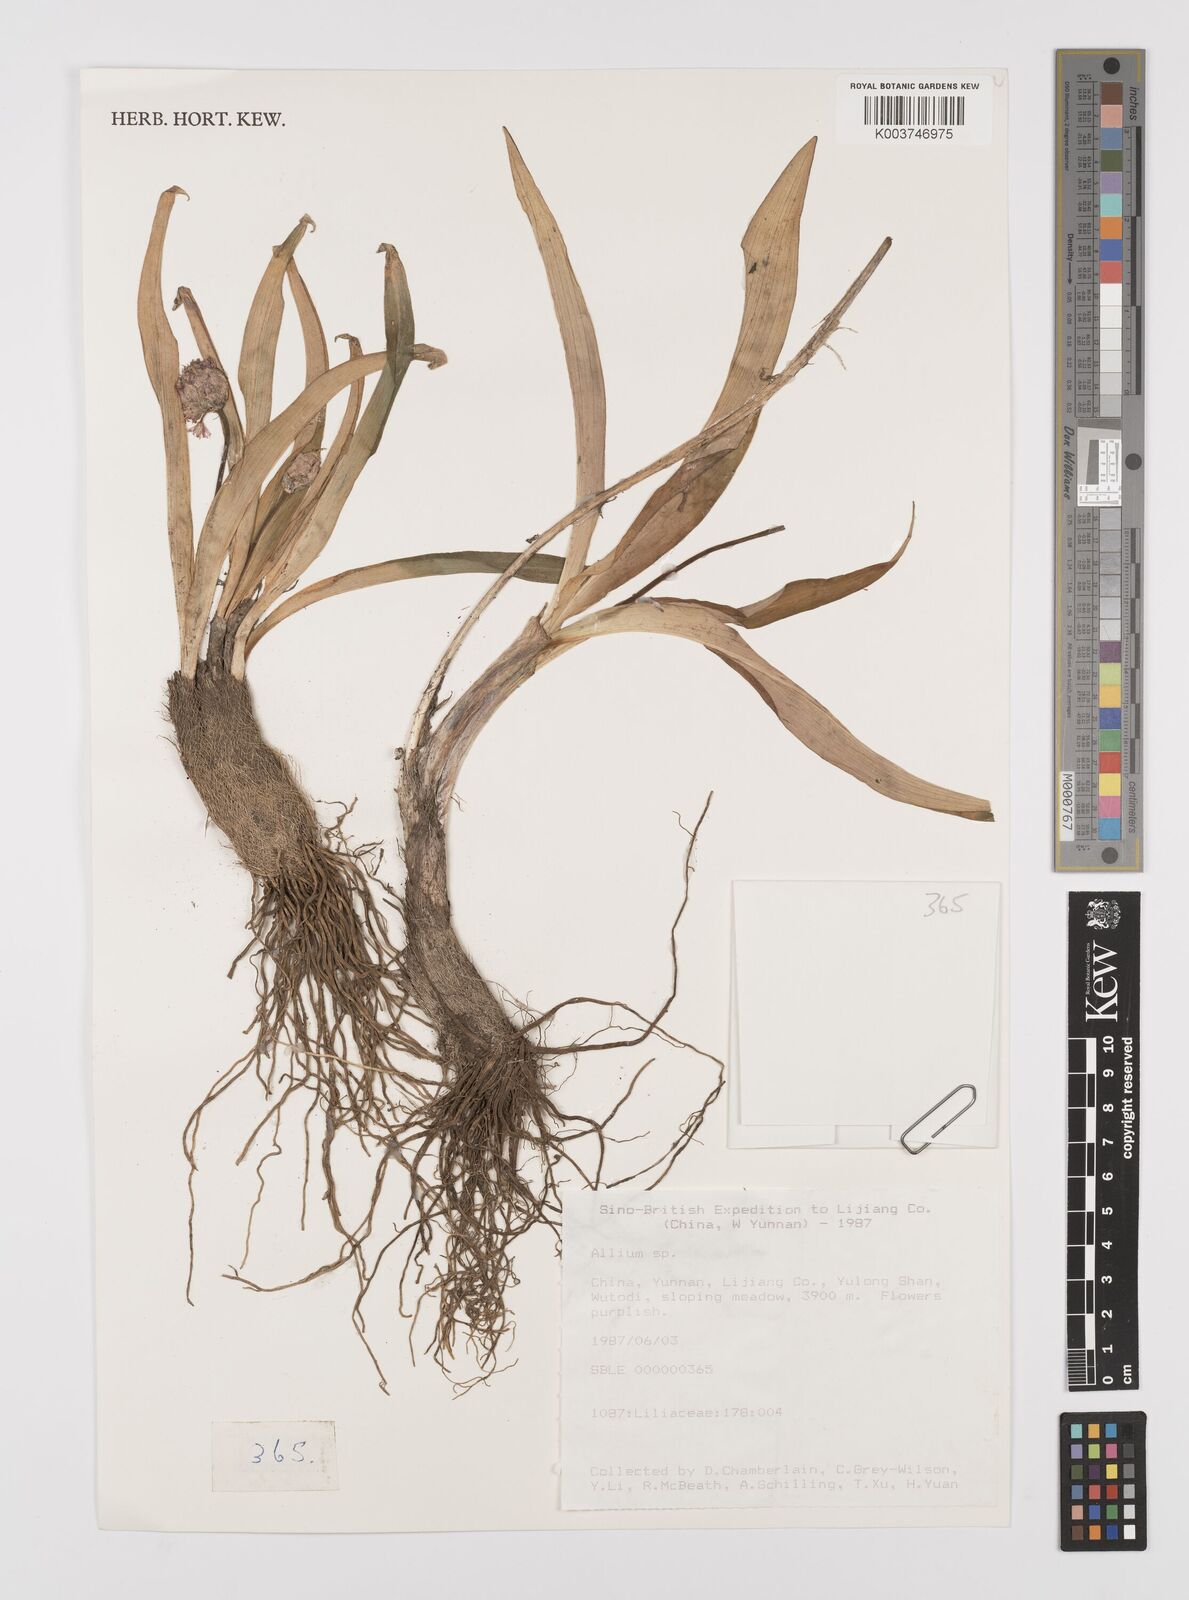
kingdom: Plantae
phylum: Tracheophyta
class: Liliopsida
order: Asparagales
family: Amaryllidaceae
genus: Allium
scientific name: Allium
